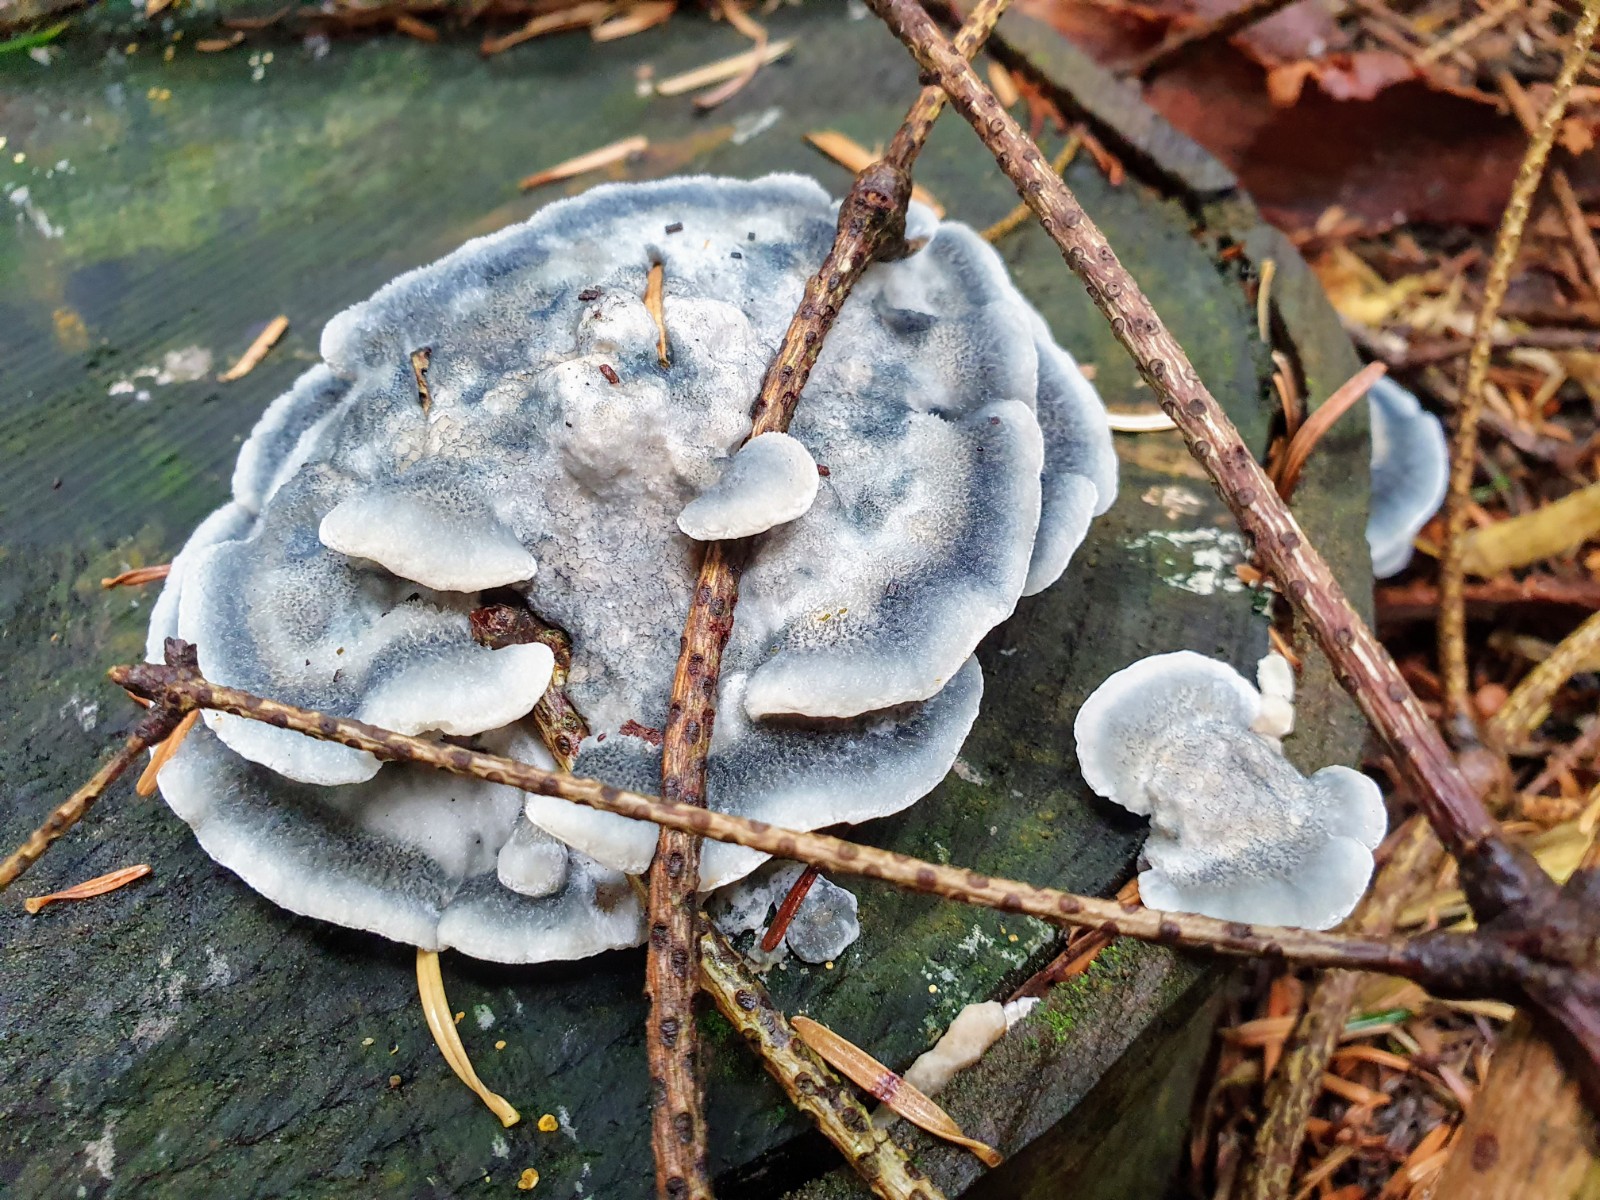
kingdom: Fungi
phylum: Basidiomycota
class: Agaricomycetes
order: Polyporales
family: Polyporaceae
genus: Cyanosporus
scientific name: Cyanosporus caesius
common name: blålig kødporesvamp
